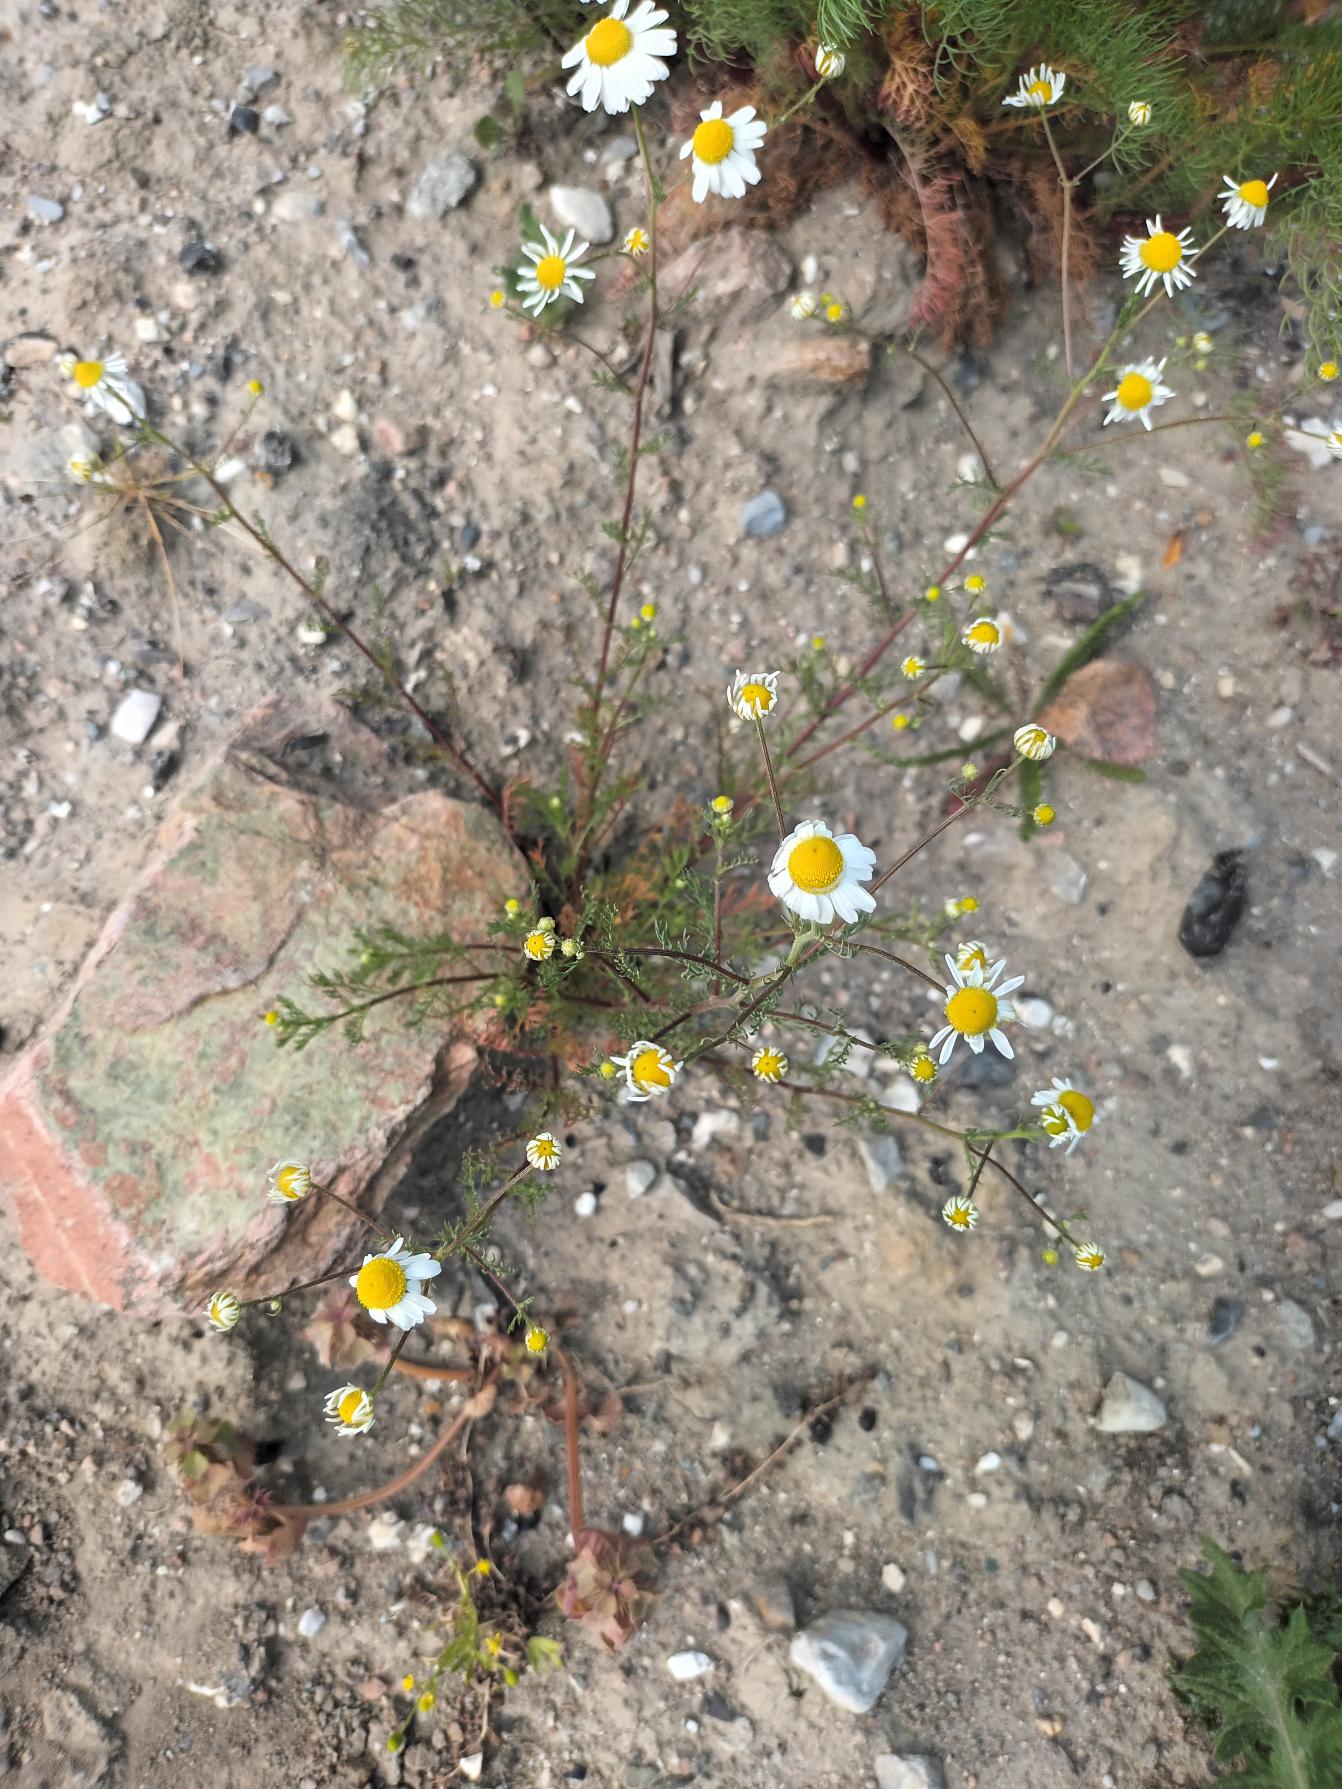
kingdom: Plantae
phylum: Tracheophyta
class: Magnoliopsida
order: Asterales
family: Asteraceae
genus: Matricaria
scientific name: Matricaria chamomilla
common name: Vellugtende kamille
